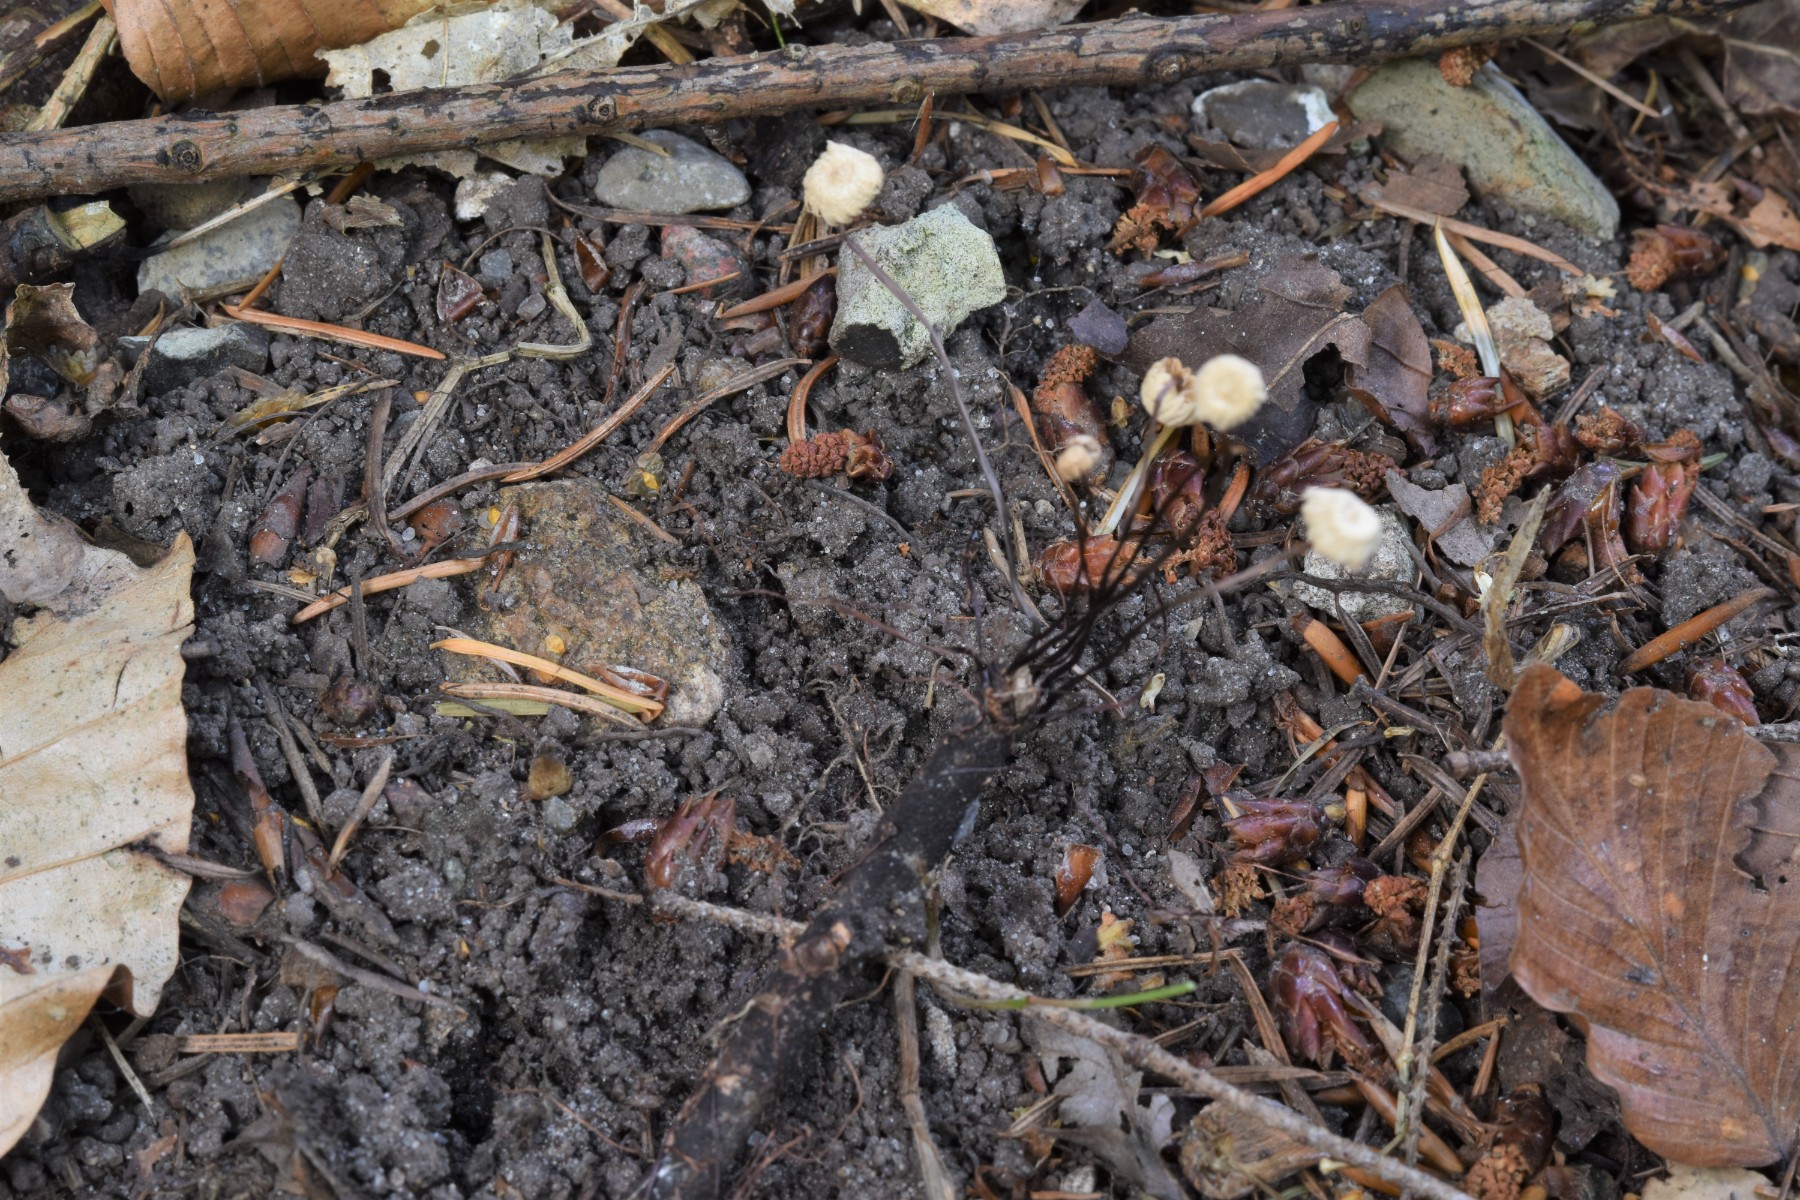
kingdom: Fungi
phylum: Basidiomycota
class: Agaricomycetes
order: Agaricales
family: Marasmiaceae
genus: Marasmius
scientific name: Marasmius rotula
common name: hjul-bruskhat
